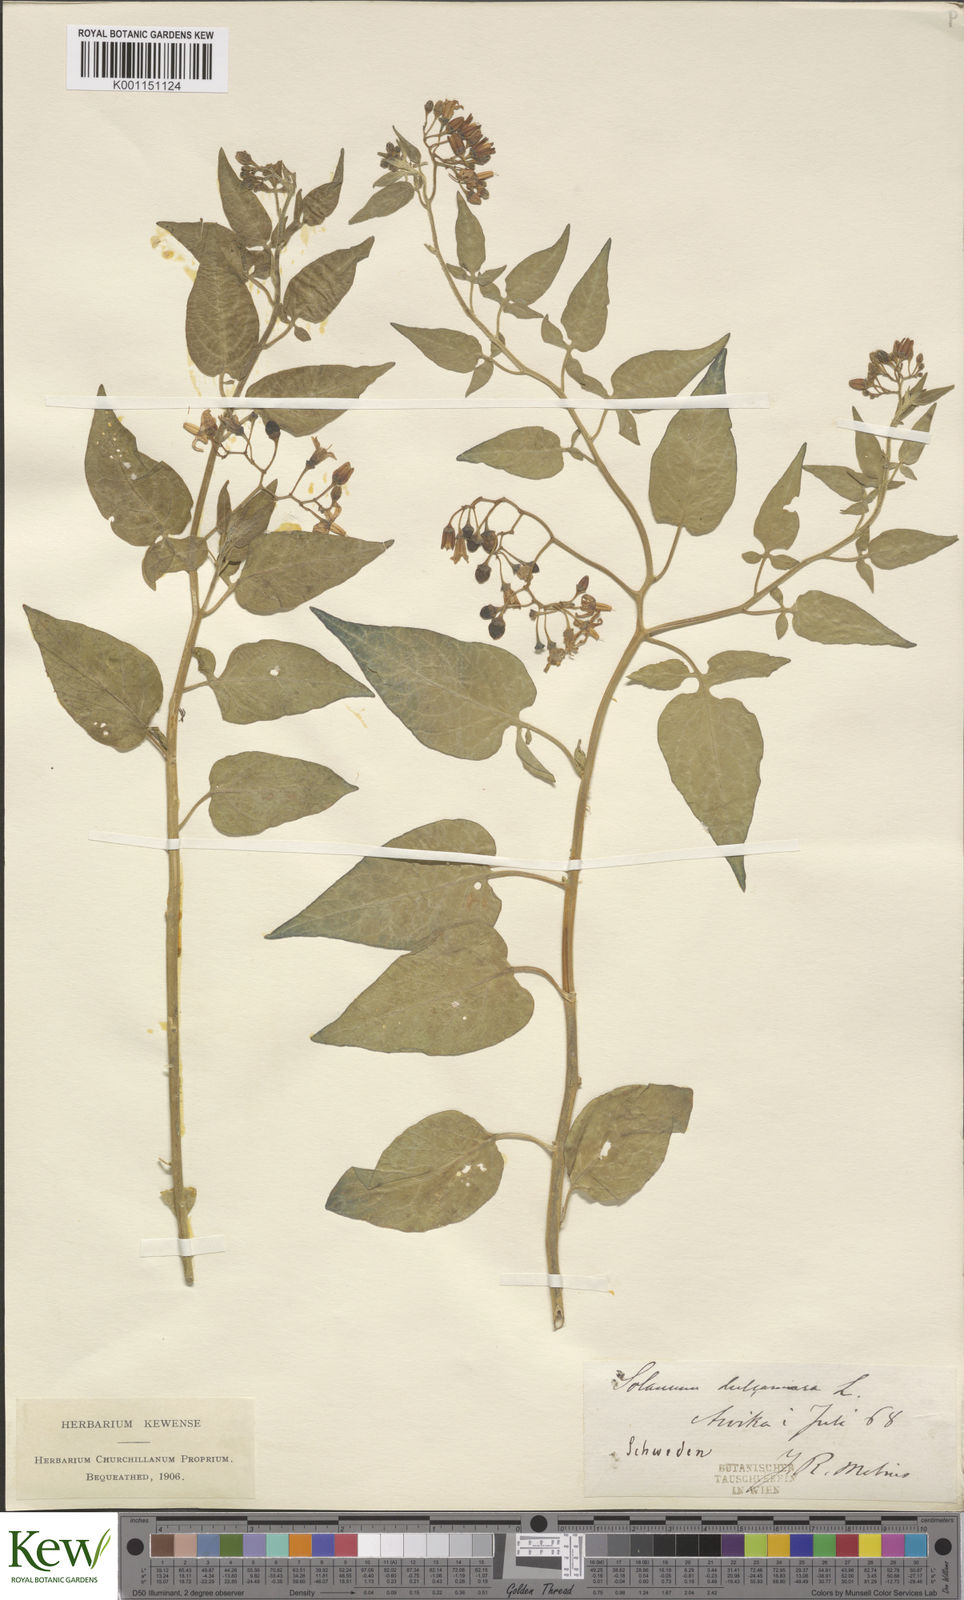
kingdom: Plantae
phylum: Tracheophyta
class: Magnoliopsida
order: Solanales
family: Solanaceae
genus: Solanum
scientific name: Solanum dulcamara
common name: Climbing nightshade
